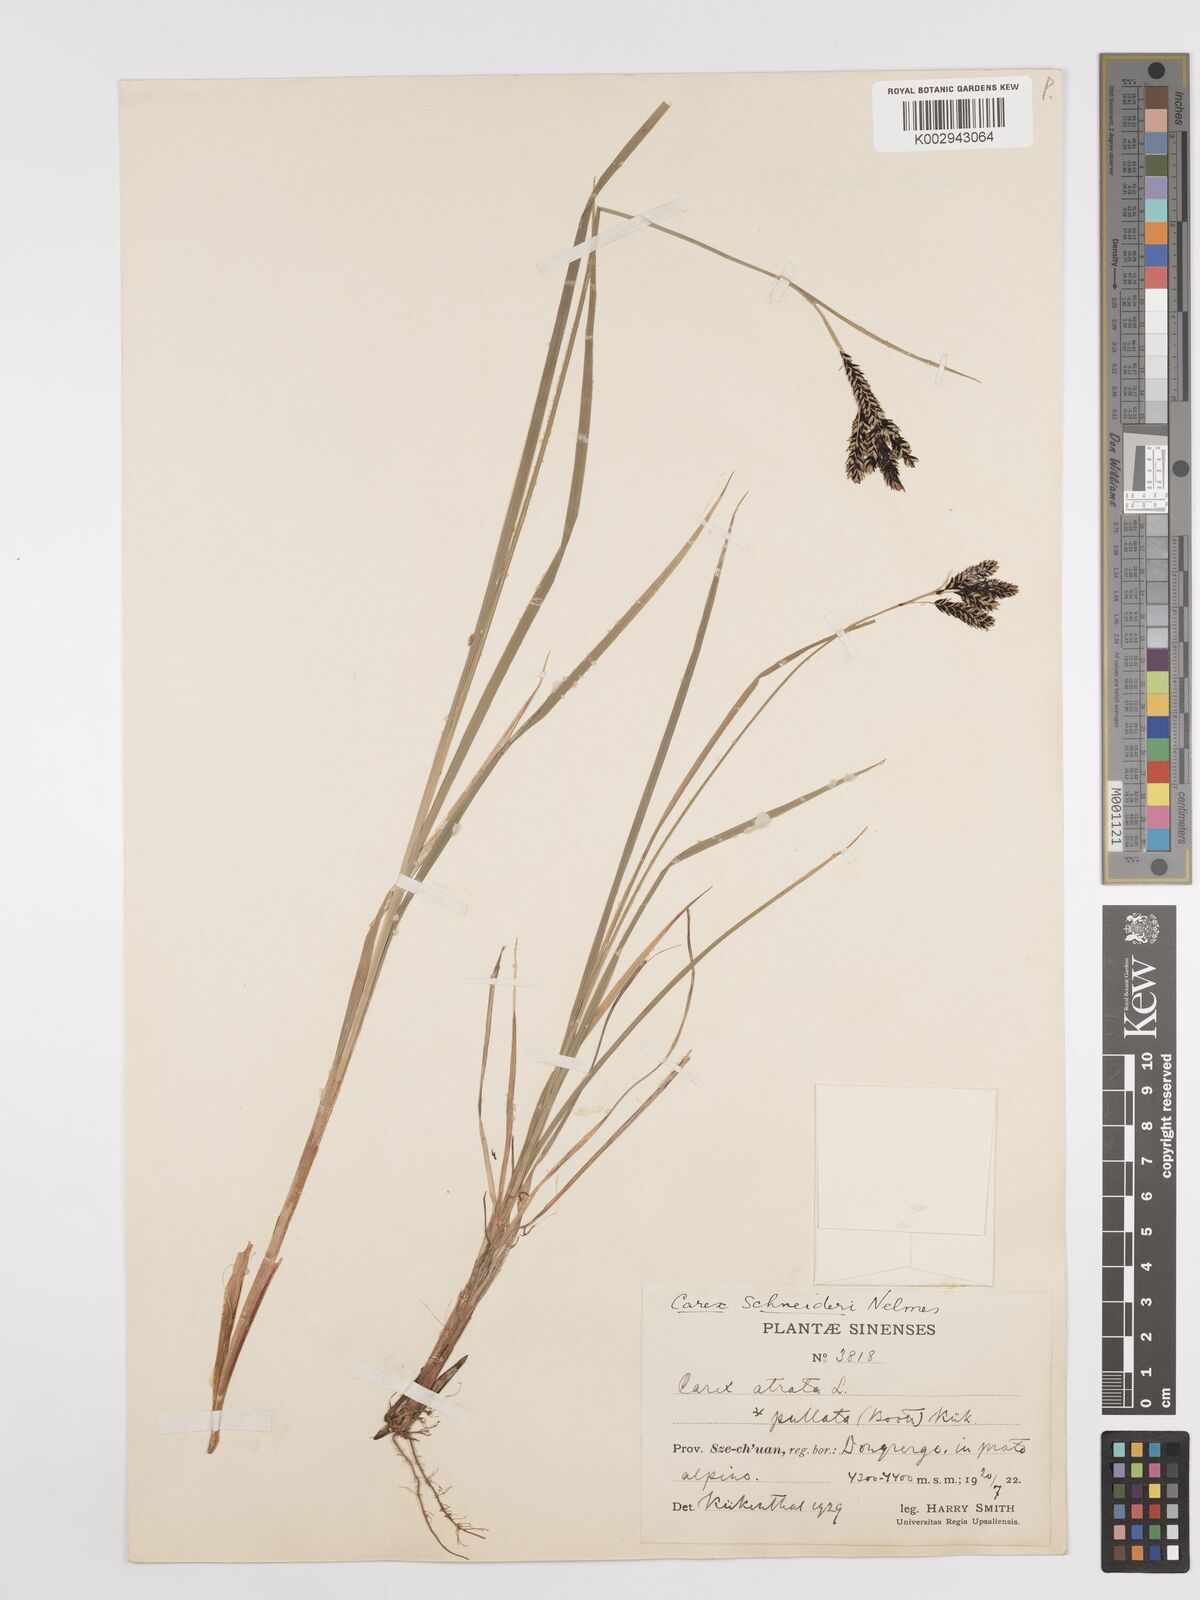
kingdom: Plantae
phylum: Tracheophyta
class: Liliopsida
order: Poales
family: Cyperaceae
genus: Carex
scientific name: Carex schneideri
